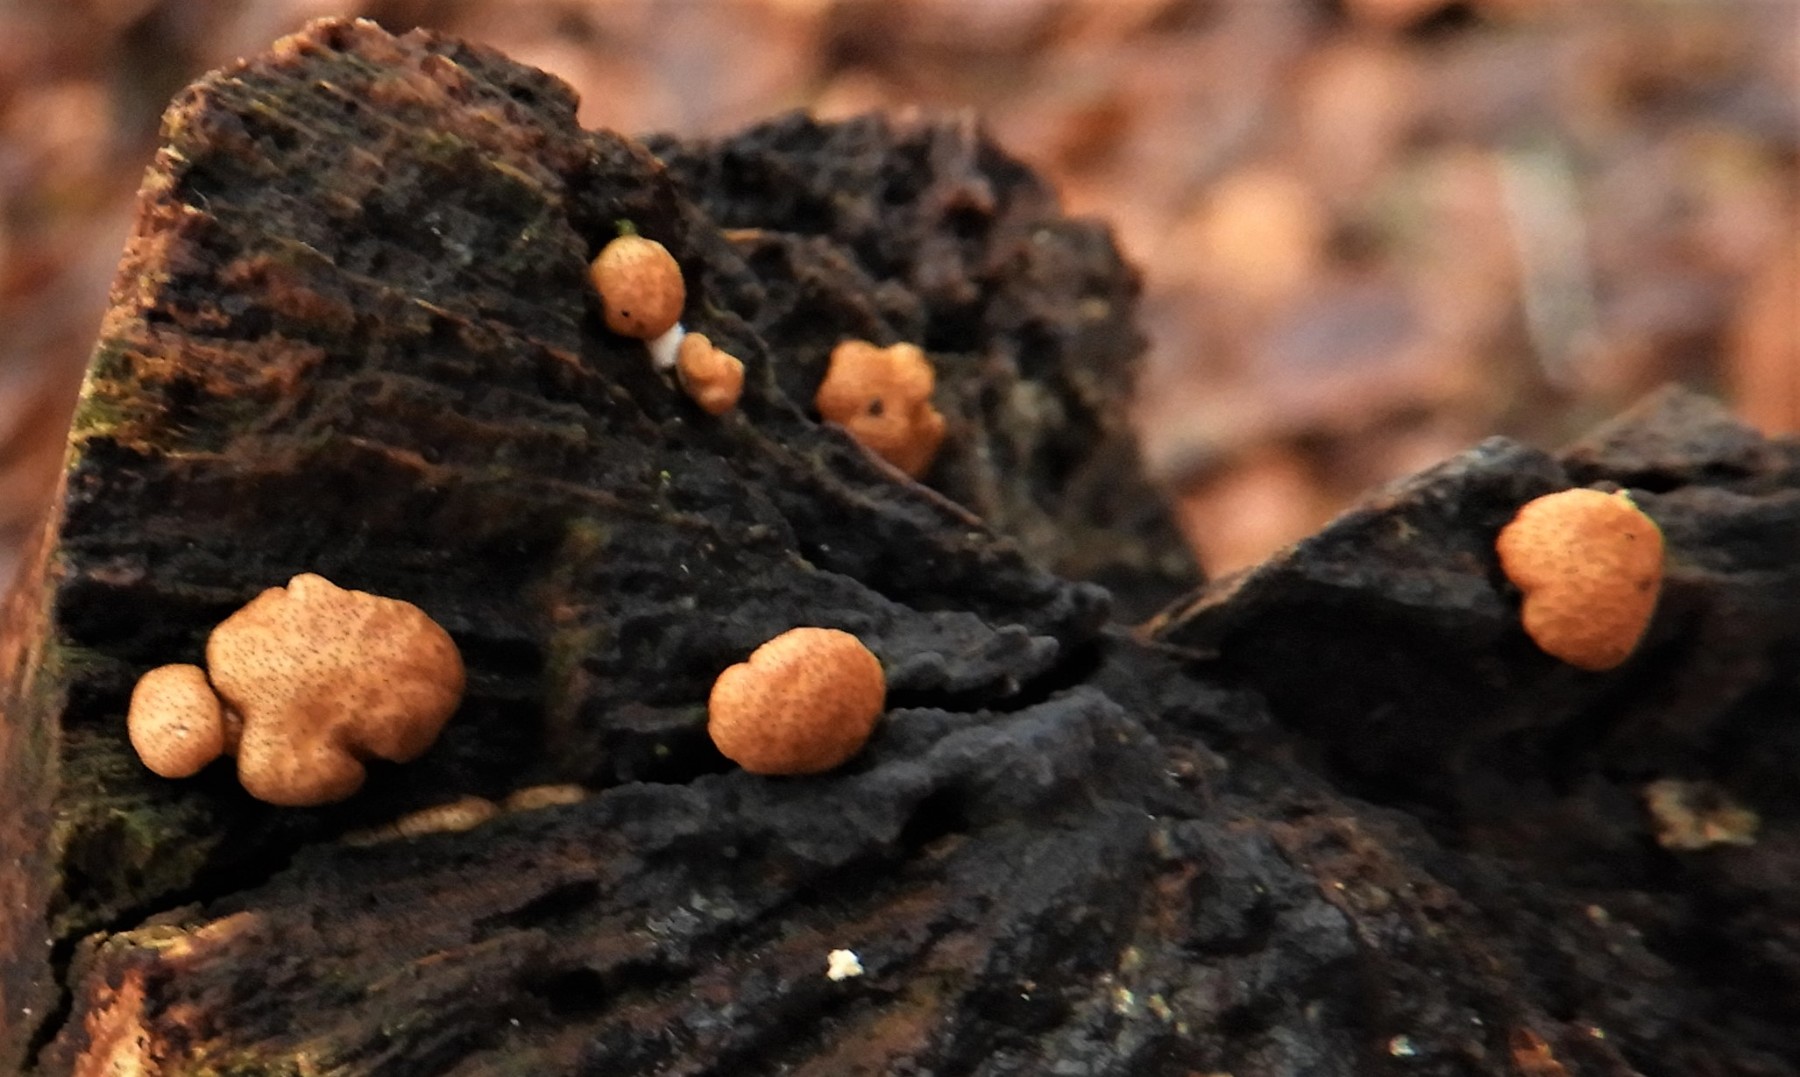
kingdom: Fungi
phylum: Ascomycota
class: Sordariomycetes
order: Hypocreales
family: Hypocreaceae
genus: Trichoderma
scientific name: Trichoderma europaeum
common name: rosabrun kødkerne
